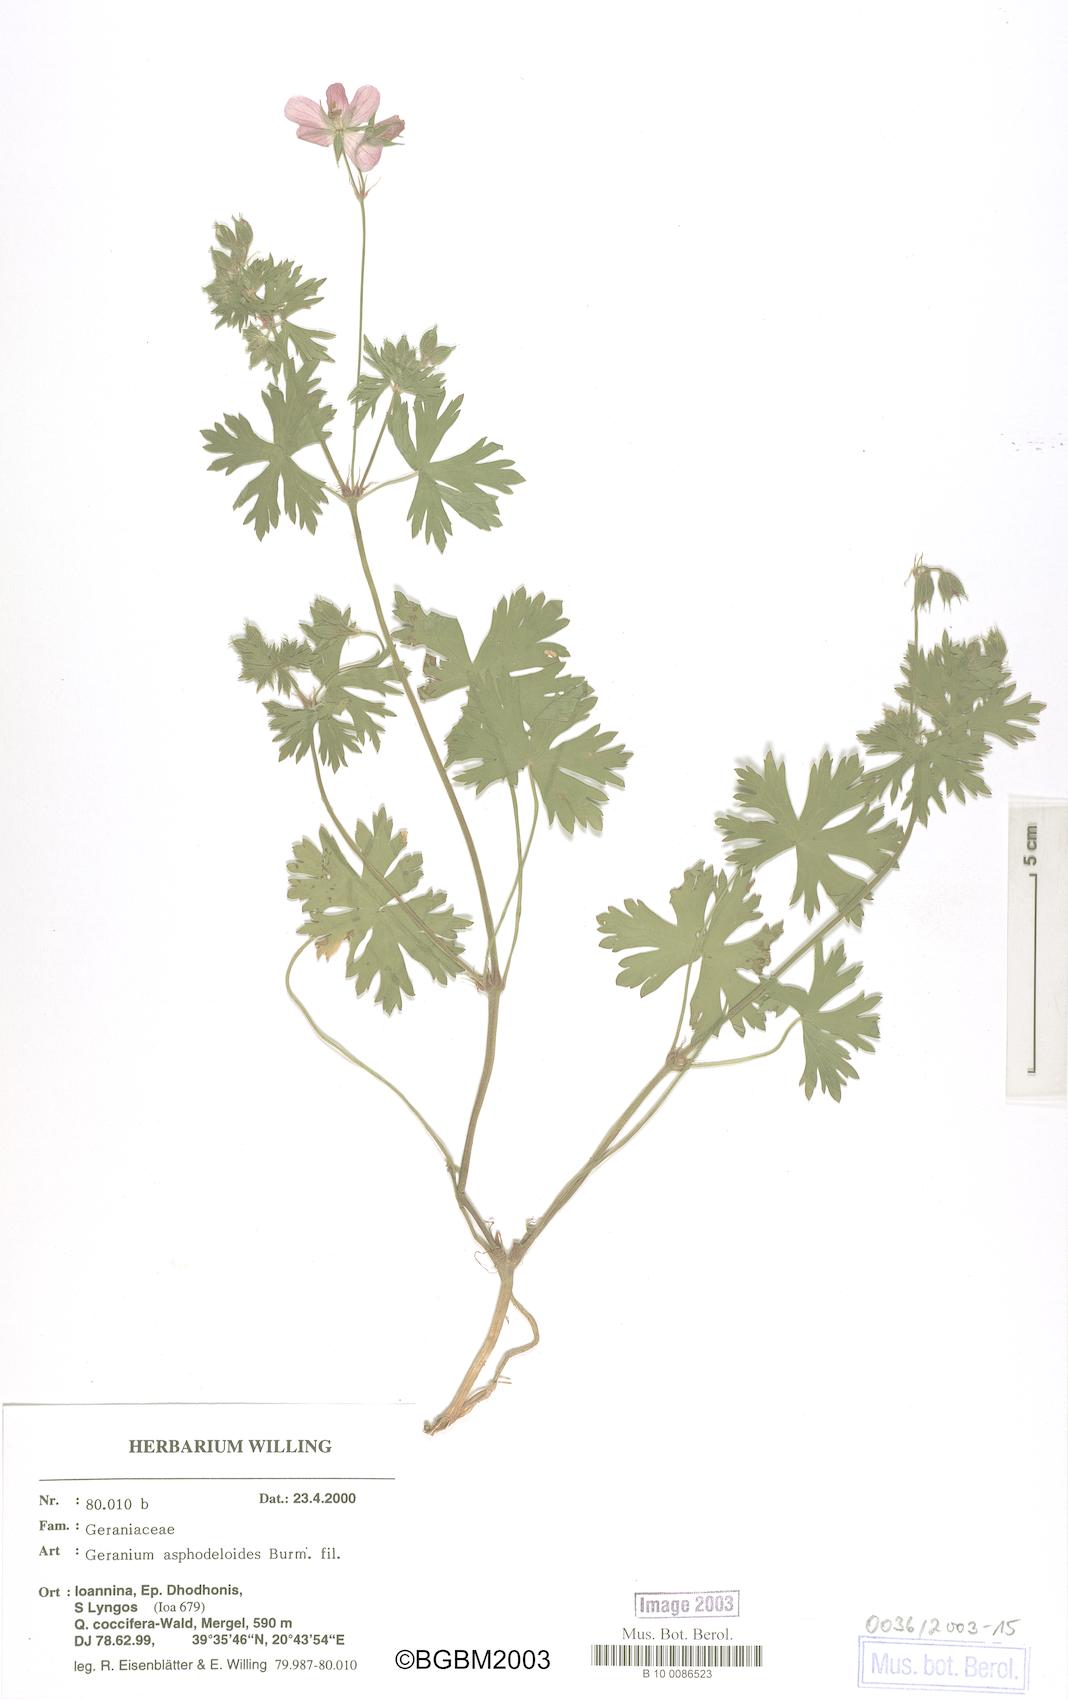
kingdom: Plantae
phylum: Tracheophyta
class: Magnoliopsida
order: Geraniales
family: Geraniaceae
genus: Geranium
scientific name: Geranium asphodeloides
